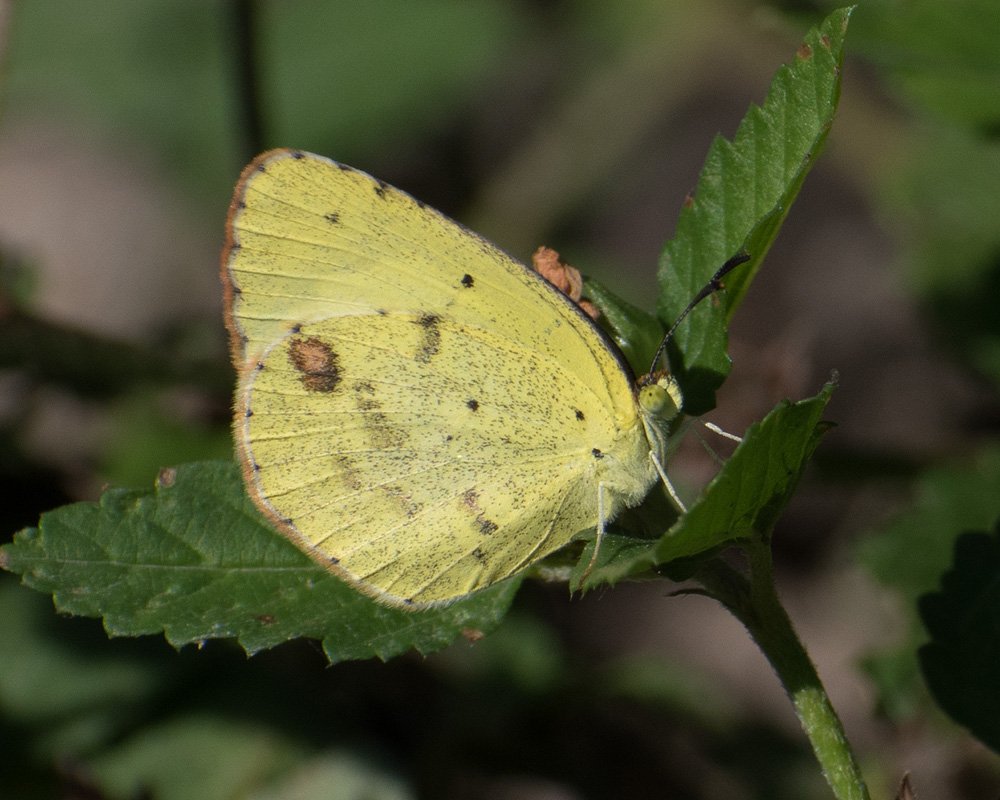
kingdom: Animalia
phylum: Arthropoda
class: Insecta
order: Lepidoptera
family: Pieridae
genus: Pyrisitia
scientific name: Pyrisitia lisa
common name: Little Yellow
